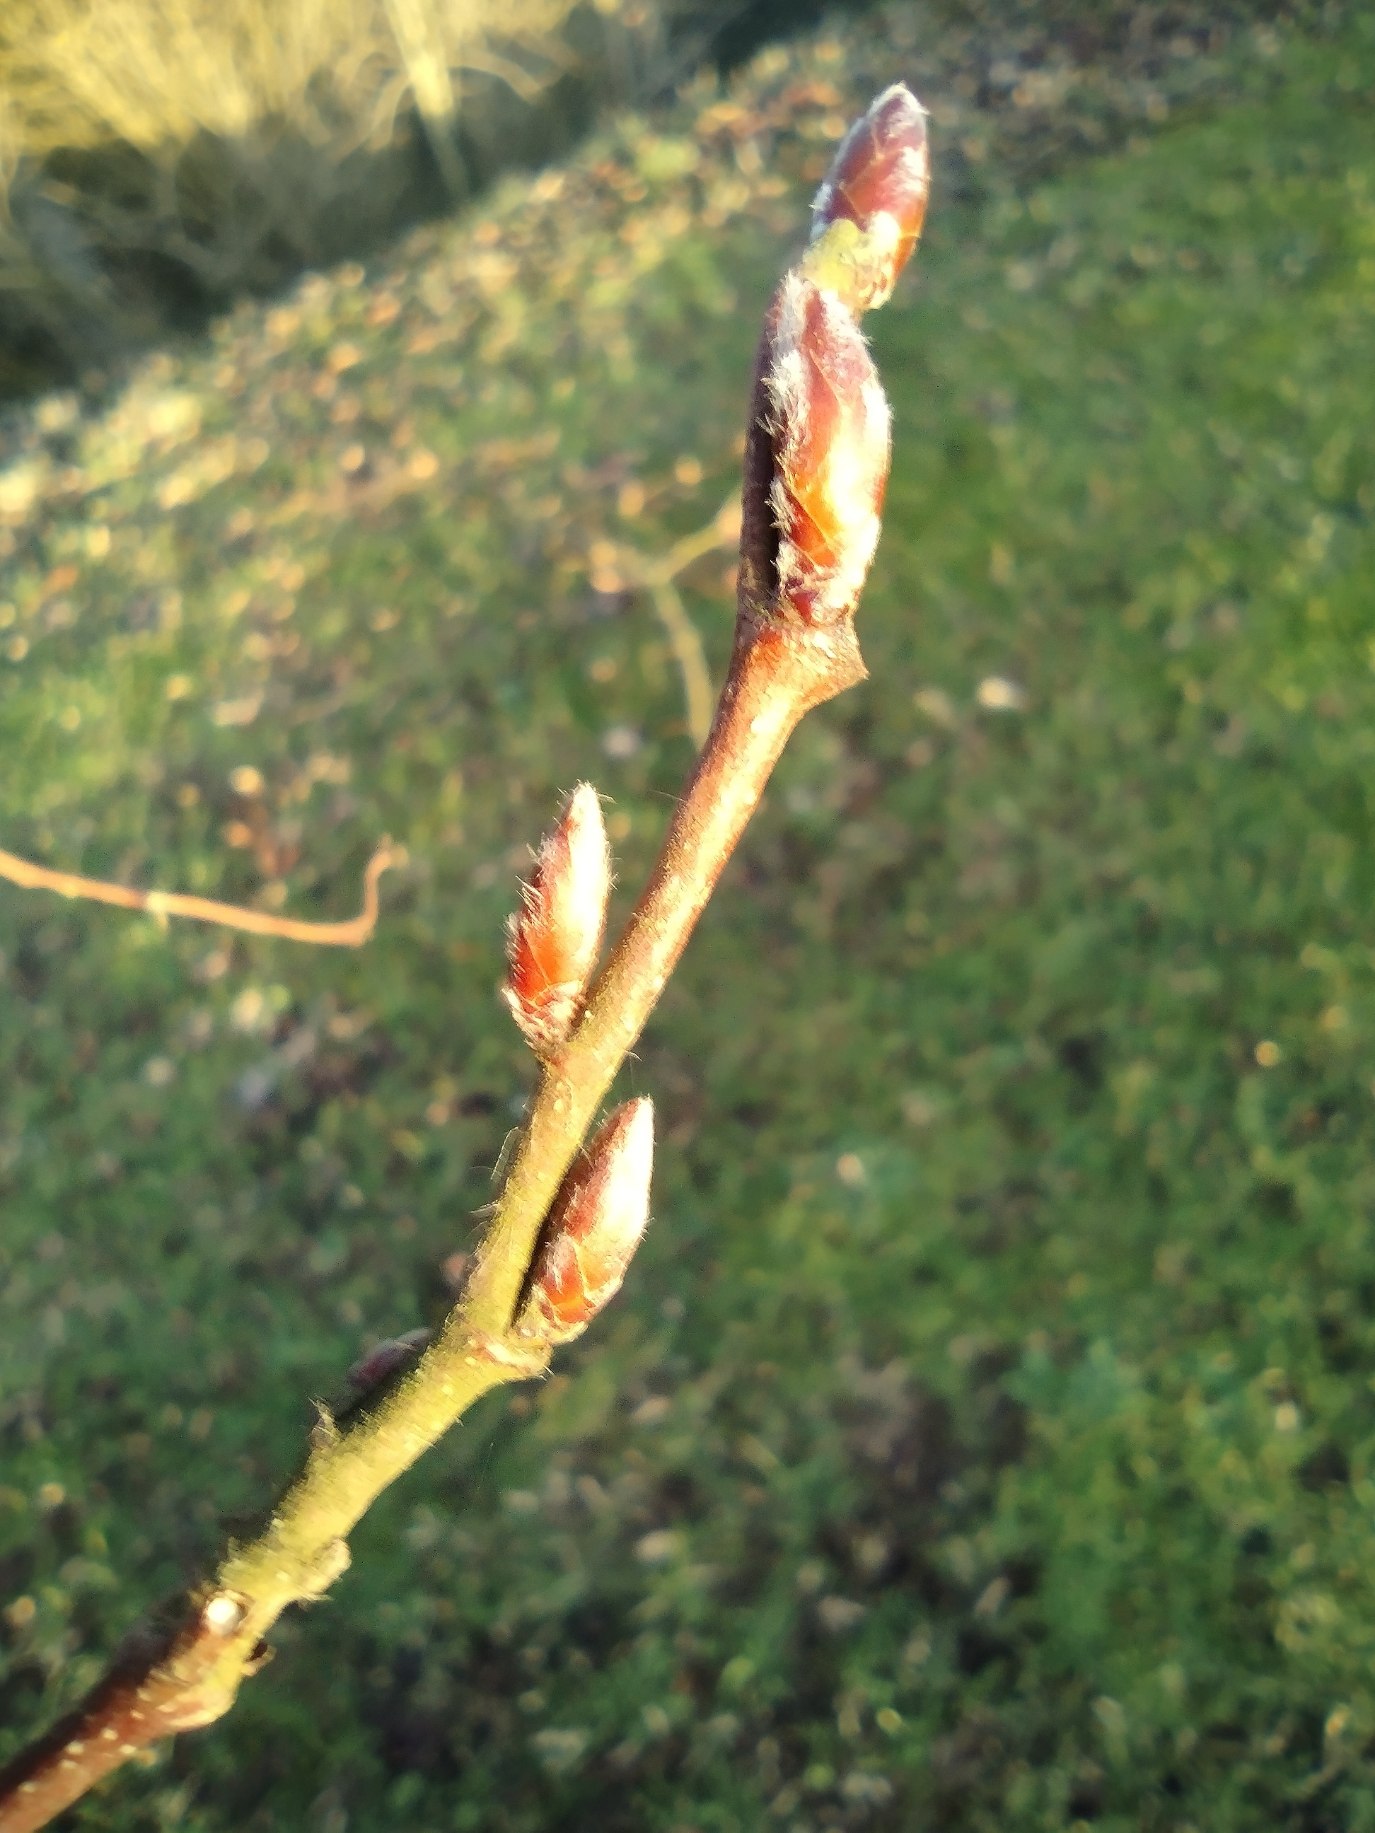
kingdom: Plantae
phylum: Tracheophyta
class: Magnoliopsida
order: Fagales
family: Betulaceae
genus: Carpinus
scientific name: Carpinus betulus
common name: Avnbøg
